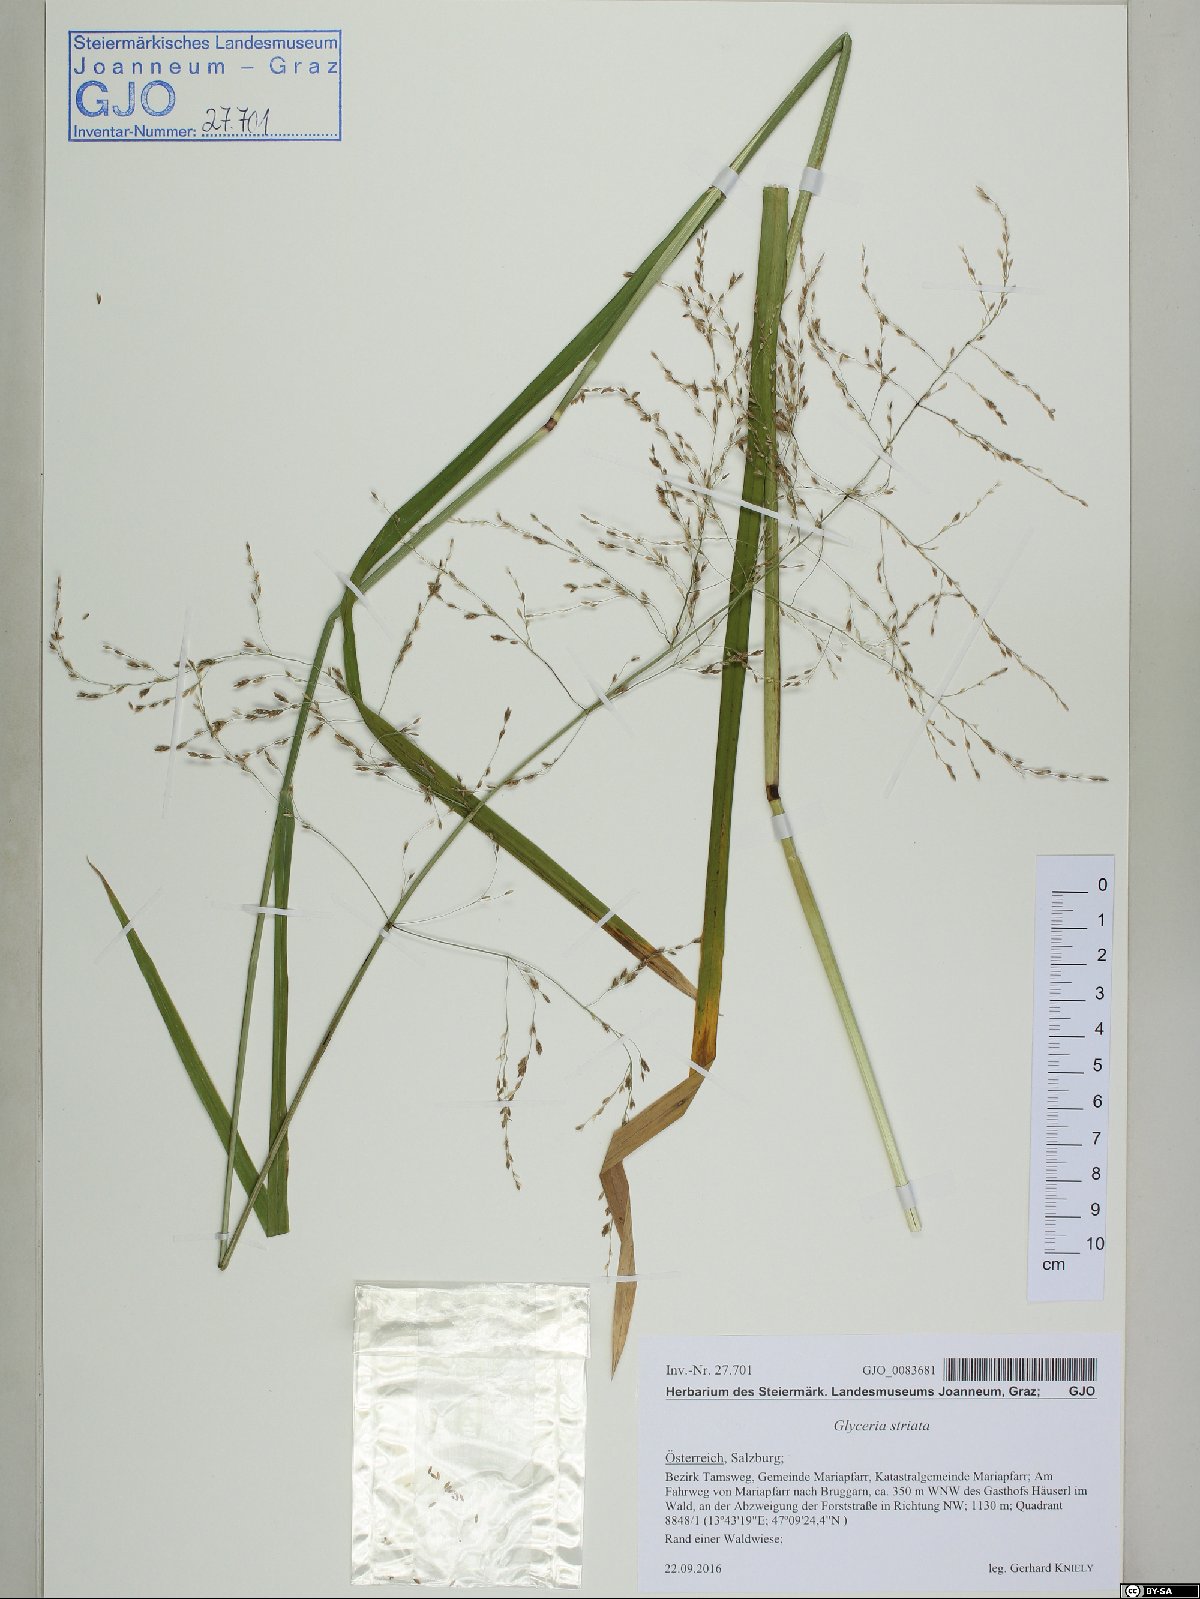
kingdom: Plantae
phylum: Tracheophyta
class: Liliopsida
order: Poales
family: Poaceae
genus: Glyceria
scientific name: Glyceria striata
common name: Fowl manna grass
